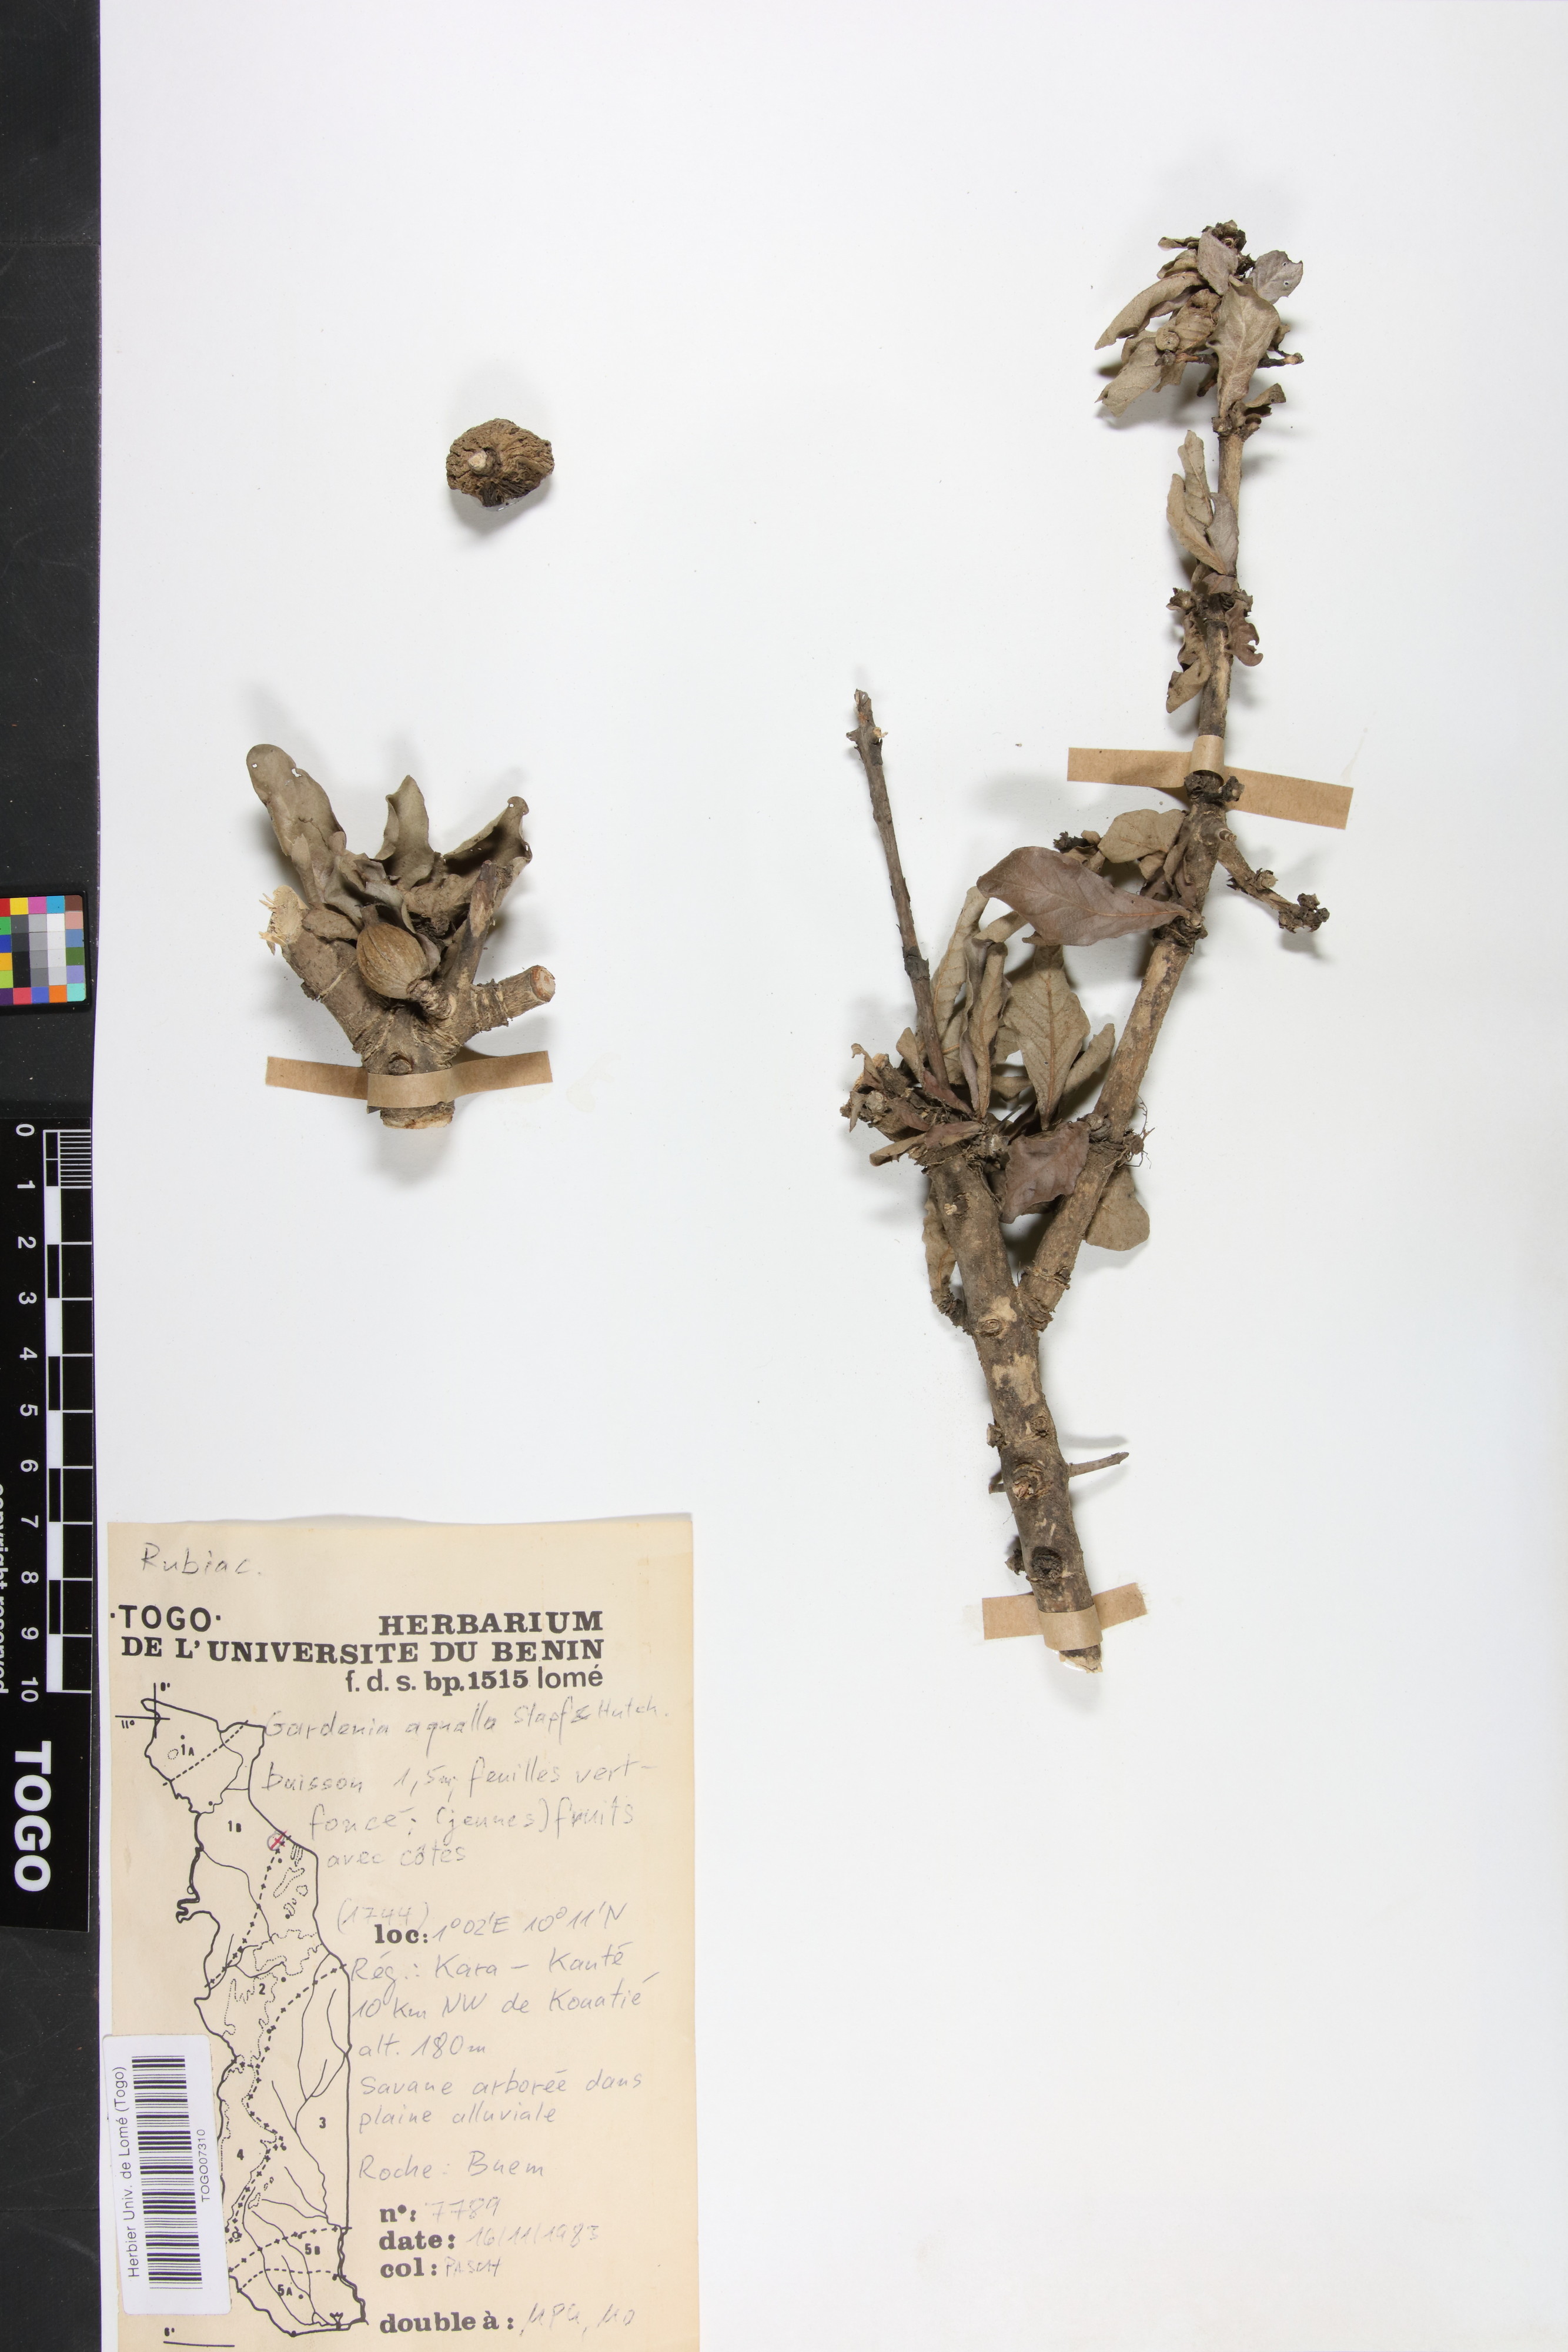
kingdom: Plantae
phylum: Tracheophyta
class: Magnoliopsida
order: Gentianales
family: Rubiaceae
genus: Gardenia
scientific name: Gardenia aqualla
